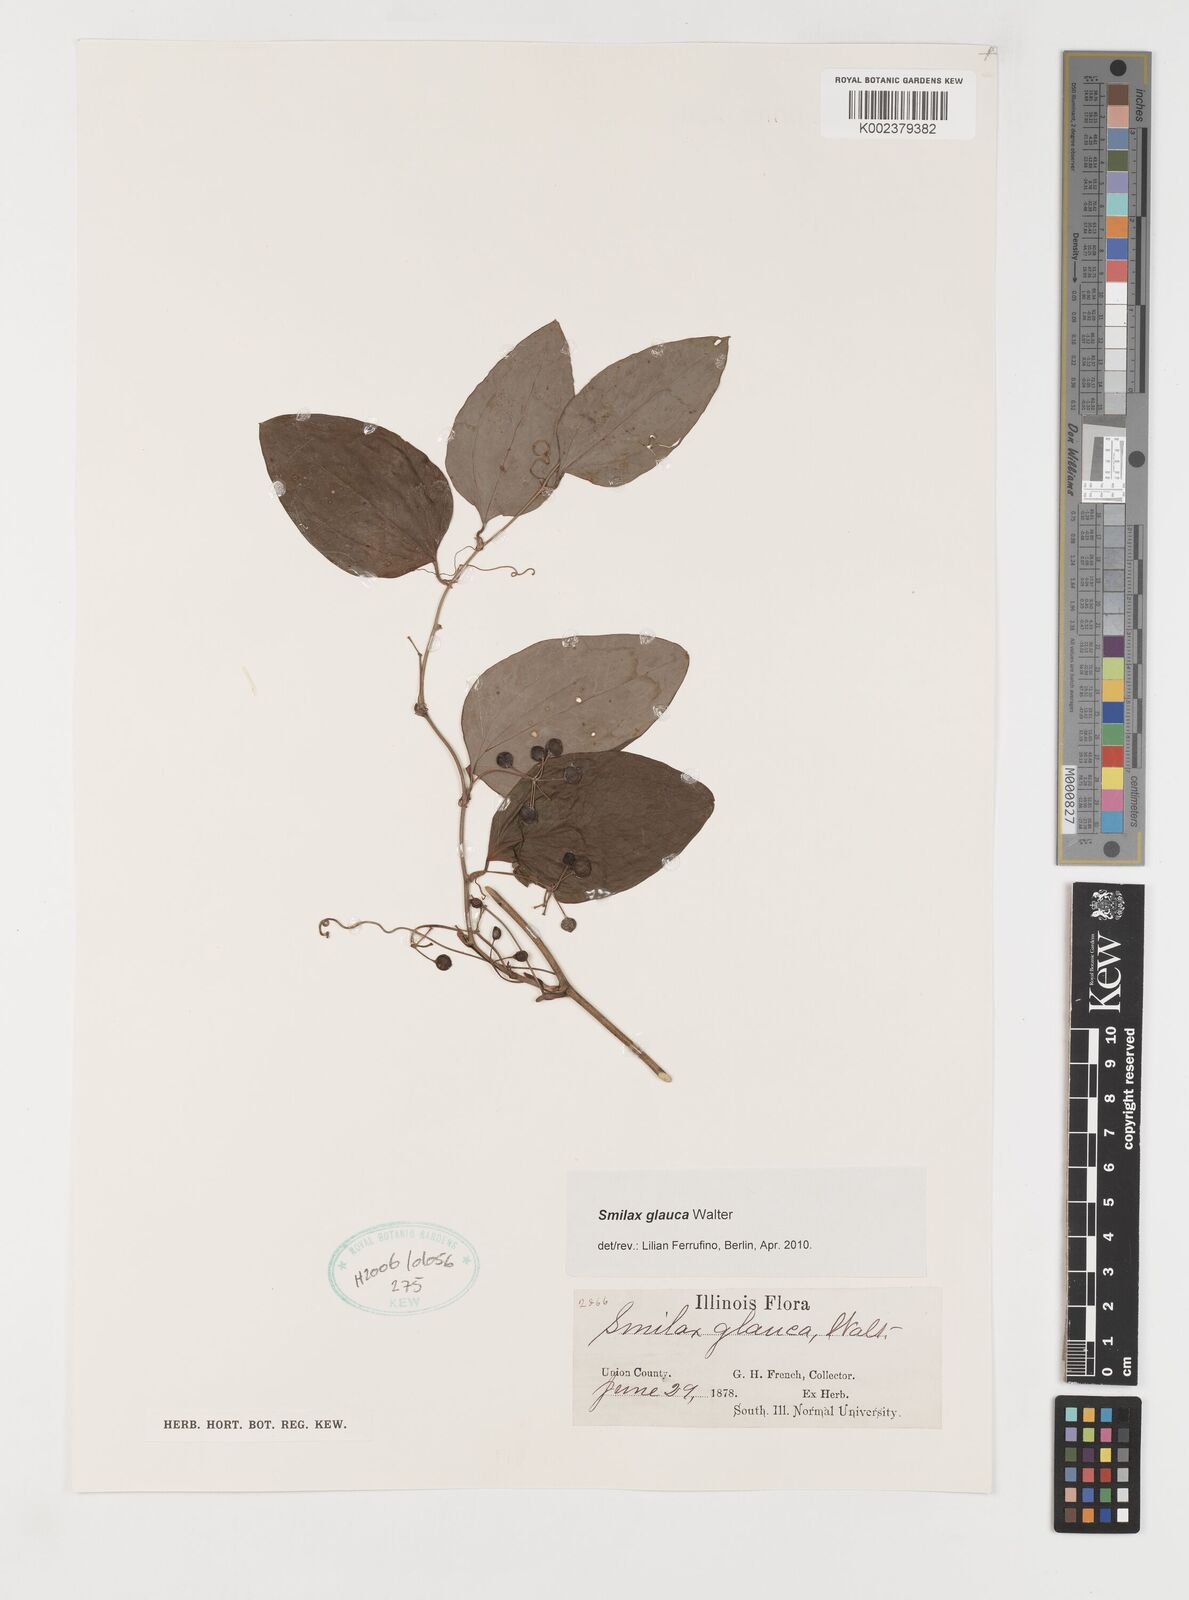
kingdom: Plantae
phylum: Tracheophyta
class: Liliopsida
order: Liliales
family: Smilacaceae
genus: Smilax
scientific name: Smilax glauca
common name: Cat greenbrier
